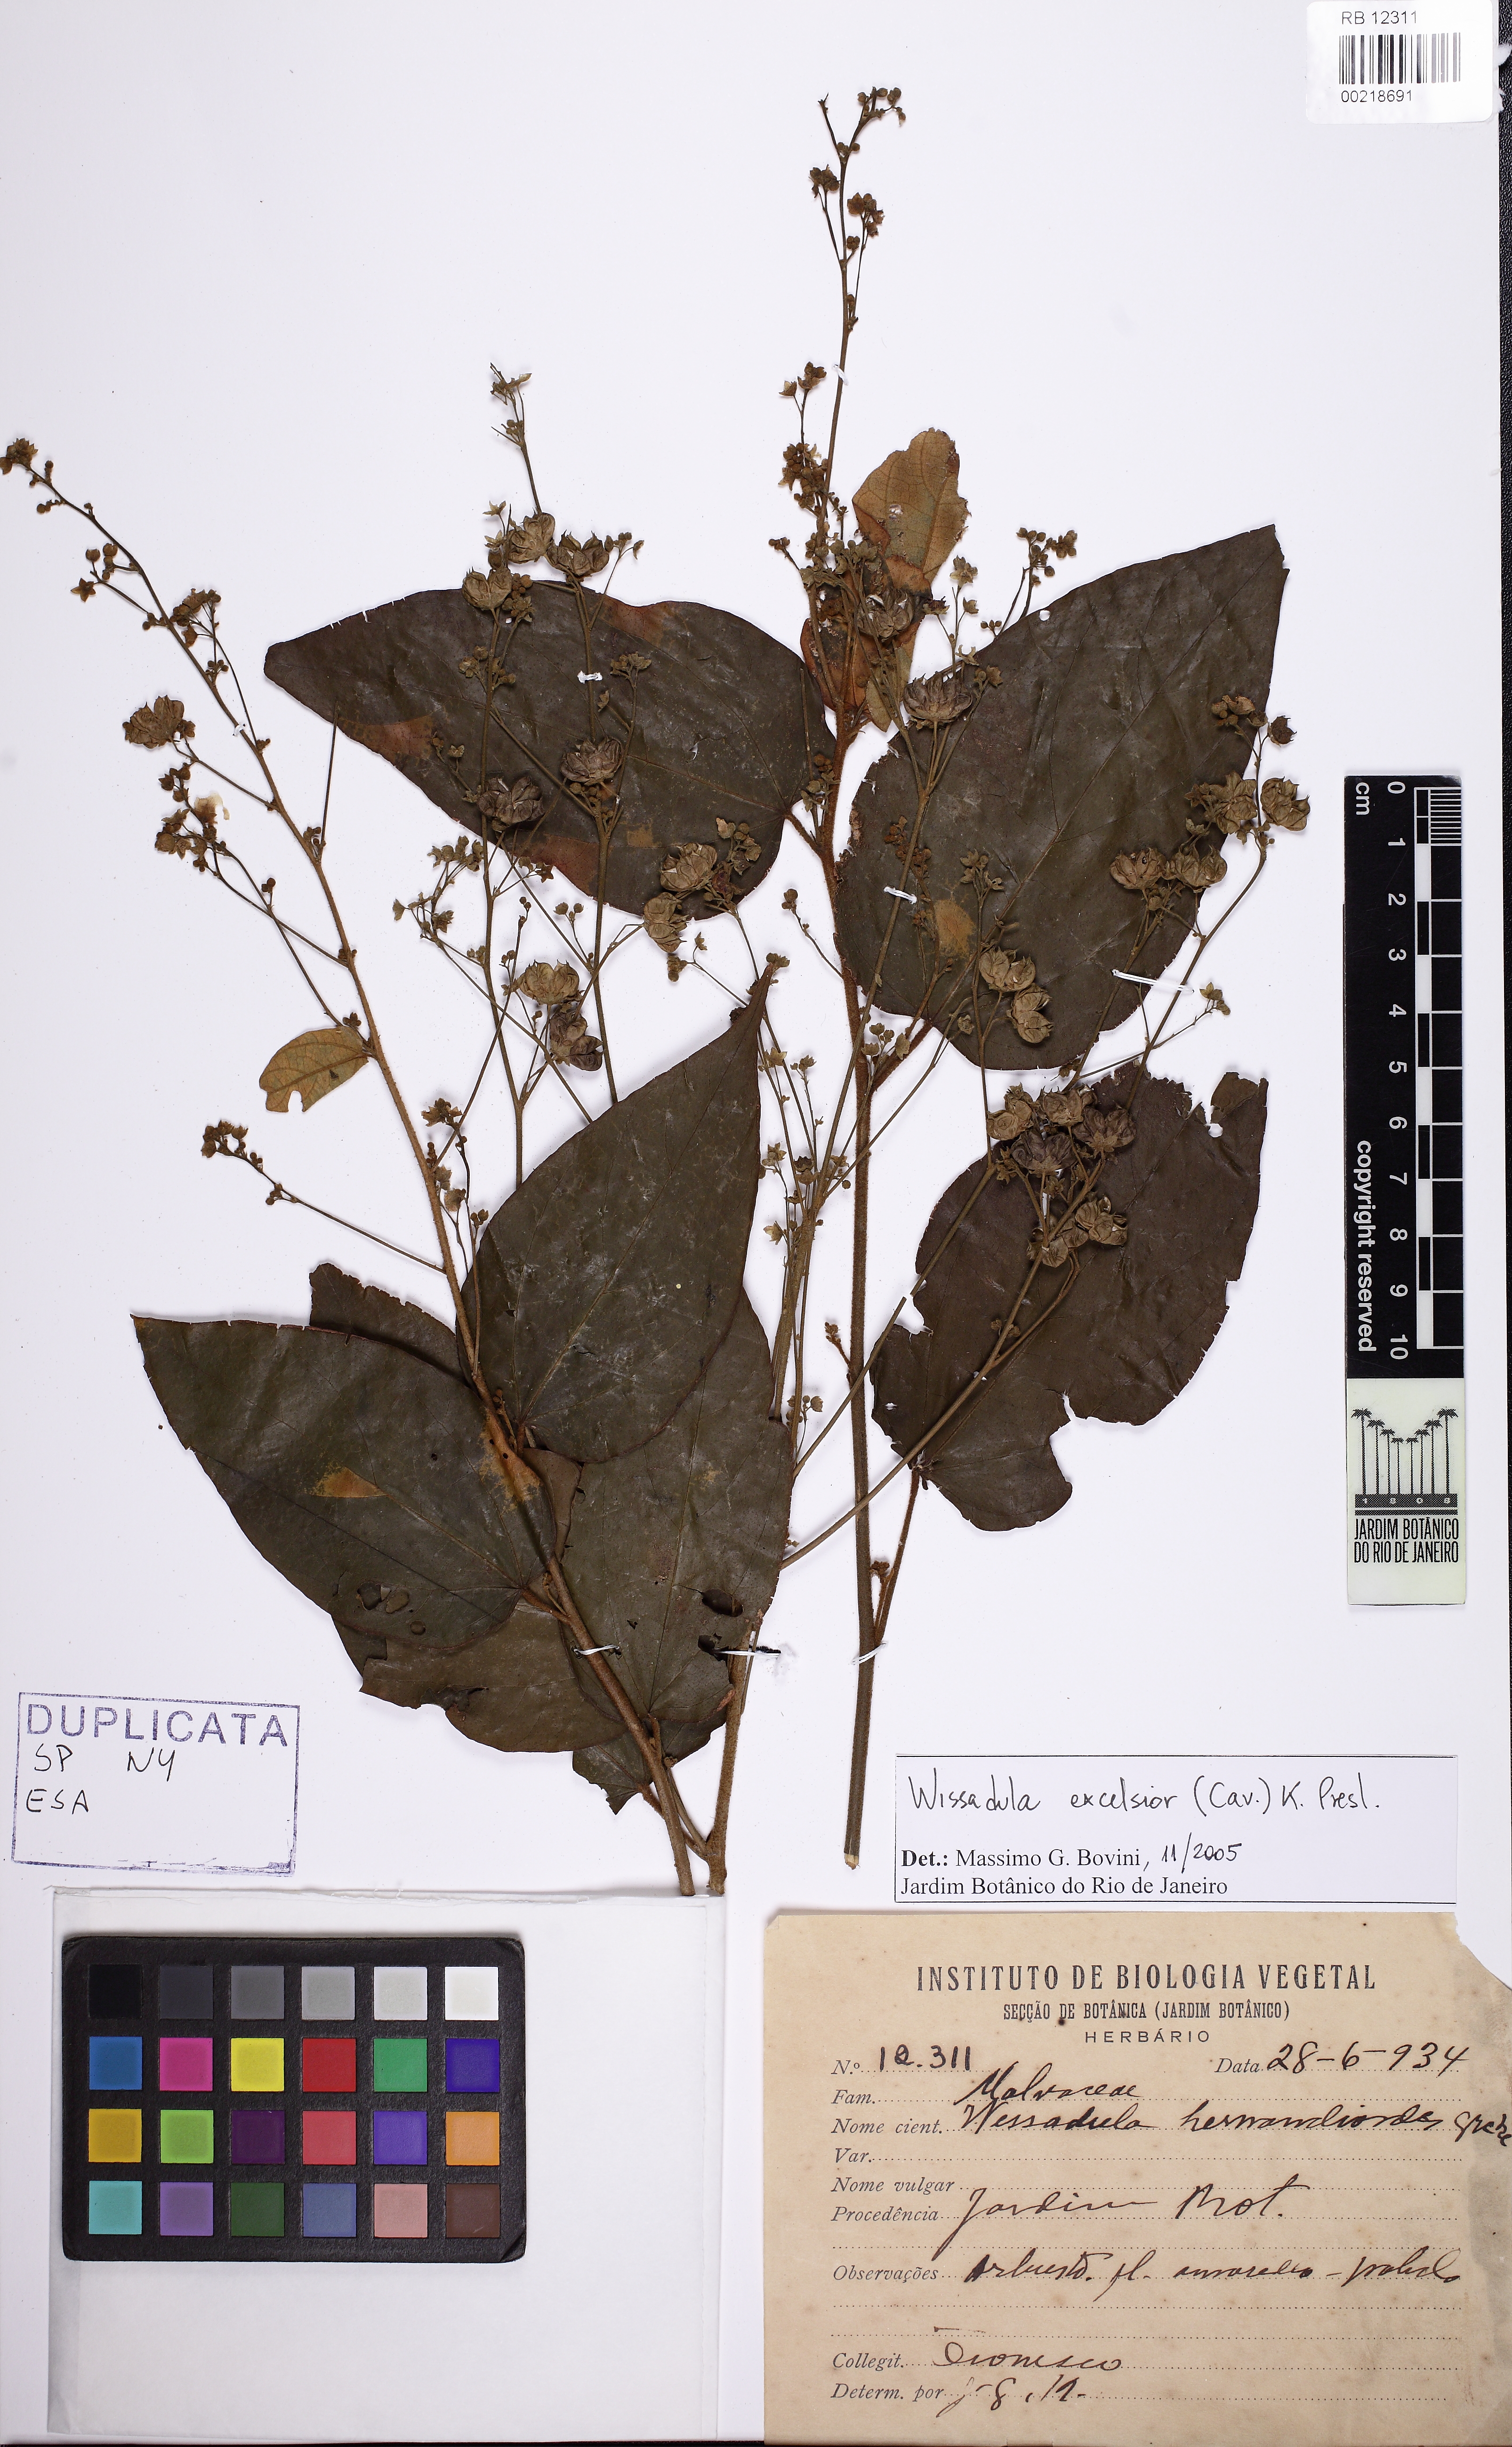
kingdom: Plantae
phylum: Tracheophyta
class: Magnoliopsida
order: Malvales
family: Malvaceae
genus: Wissadula
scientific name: Wissadula excelsior
